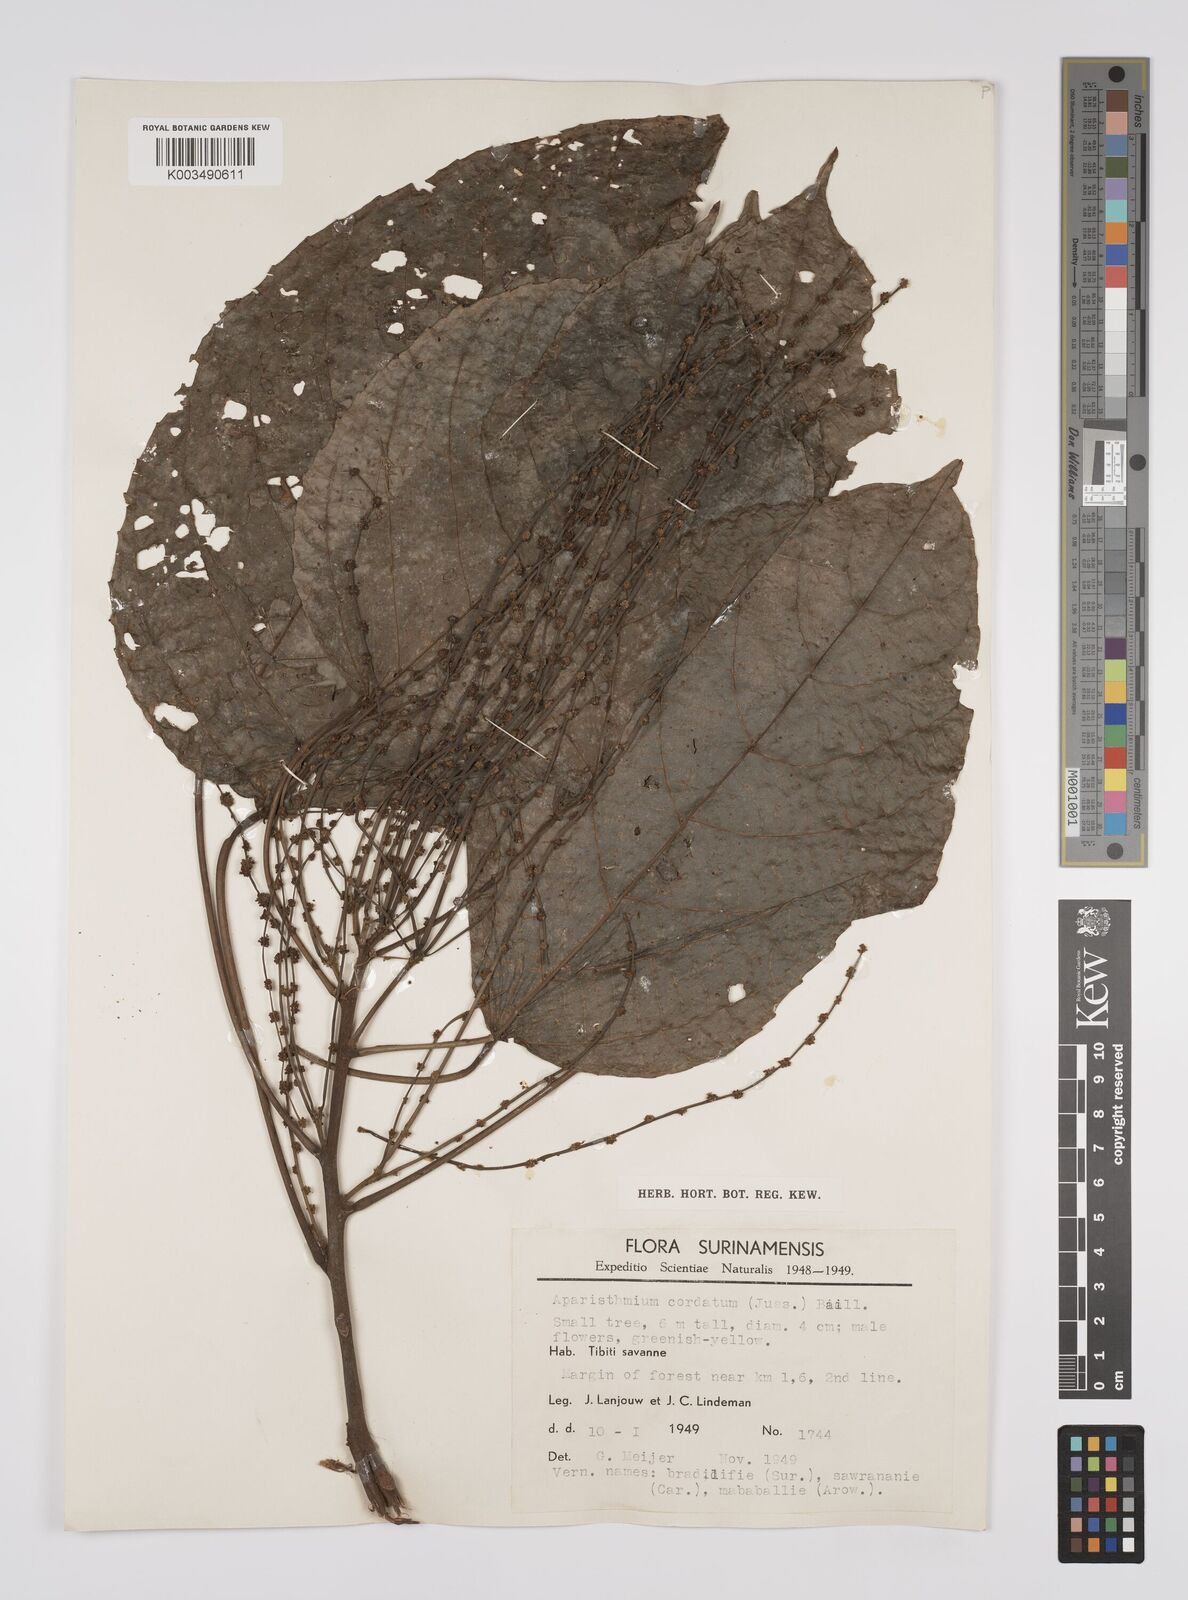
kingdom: Plantae
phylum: Tracheophyta
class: Magnoliopsida
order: Malpighiales
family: Euphorbiaceae
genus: Aparisthmium
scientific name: Aparisthmium cordatum
